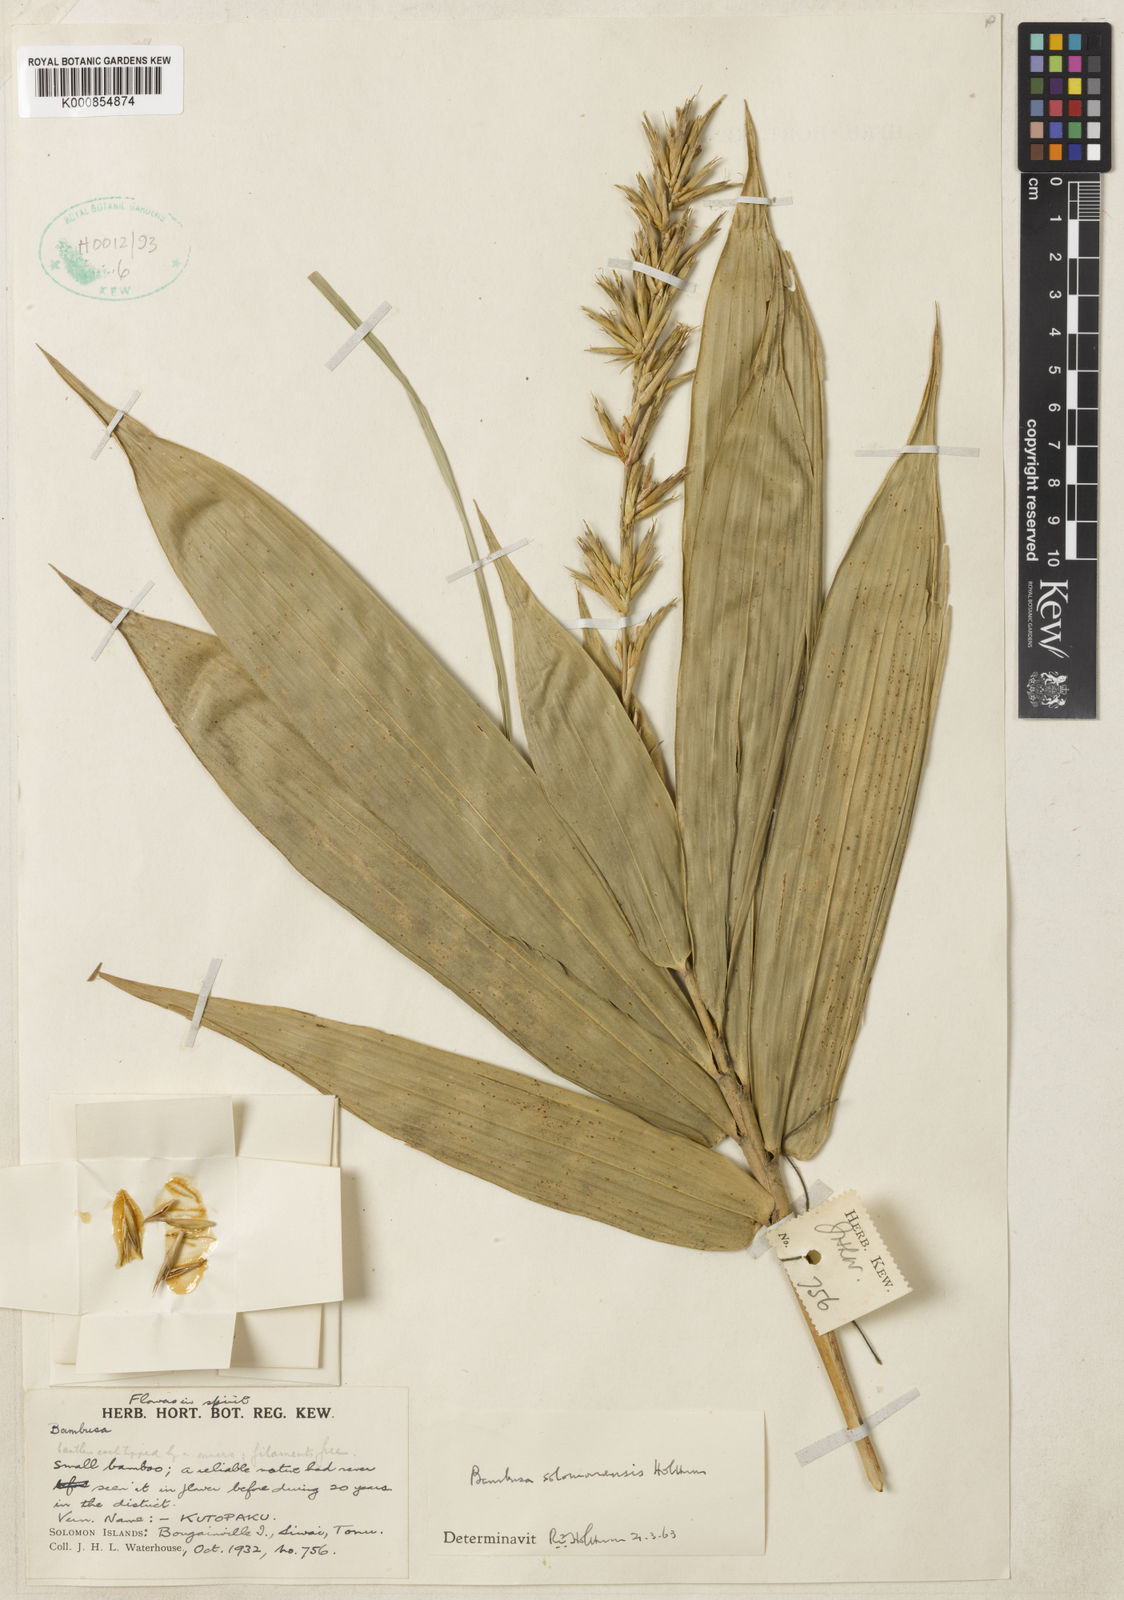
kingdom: Plantae
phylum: Tracheophyta
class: Liliopsida
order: Poales
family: Poaceae
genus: Bambusa
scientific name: Bambusa solomonensis
